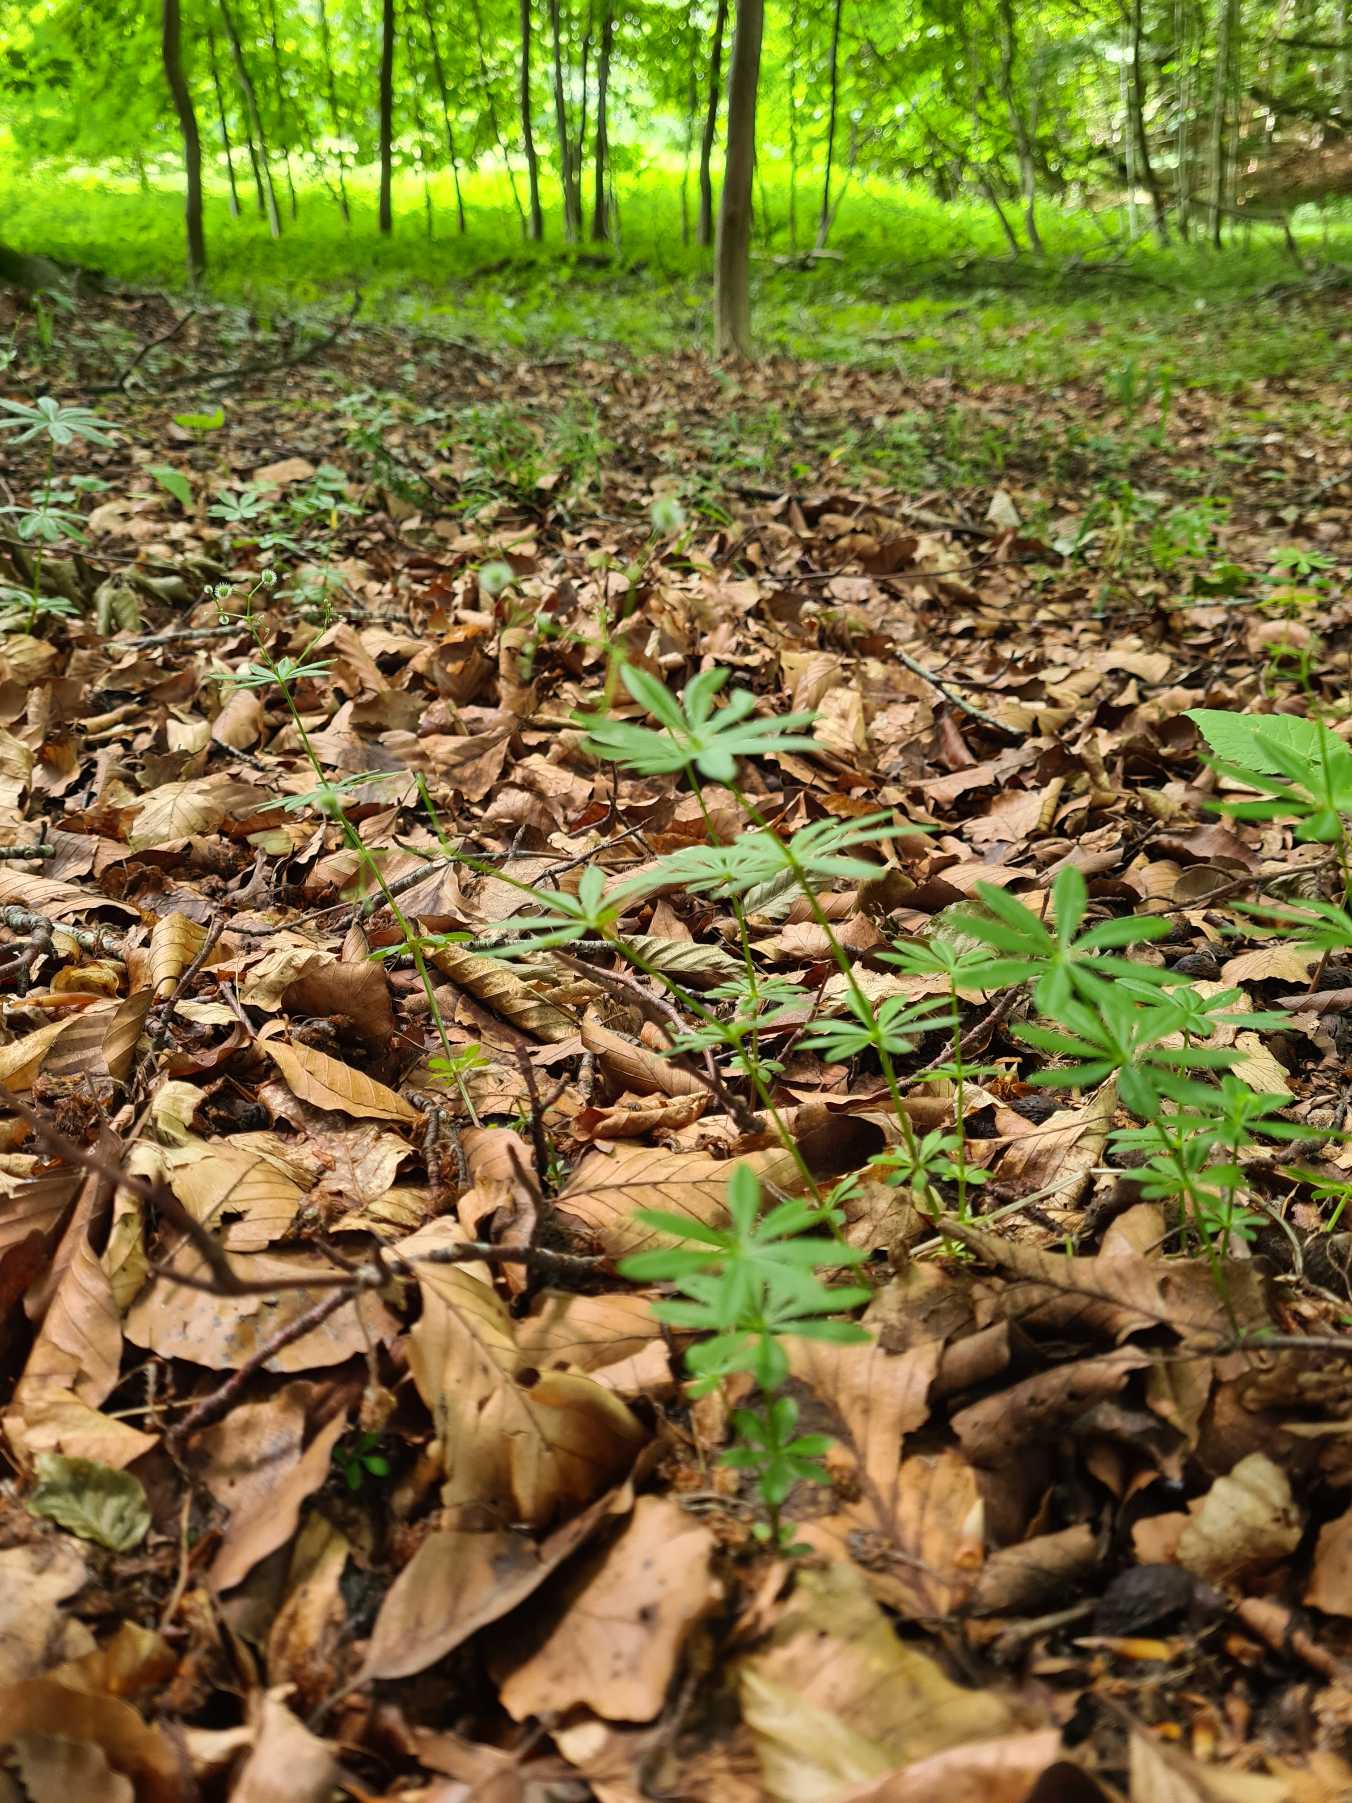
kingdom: Plantae
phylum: Tracheophyta
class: Magnoliopsida
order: Gentianales
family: Rubiaceae
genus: Galium
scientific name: Galium odoratum
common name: Skovmærke
